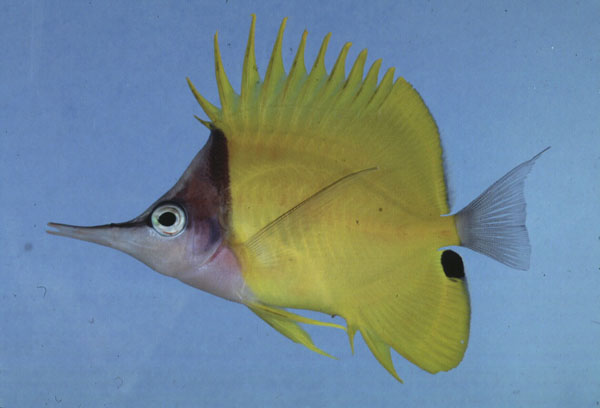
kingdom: Animalia
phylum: Chordata
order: Perciformes
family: Chaetodontidae
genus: Forcipiger
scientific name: Forcipiger flavissimus
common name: Forcepsfish
